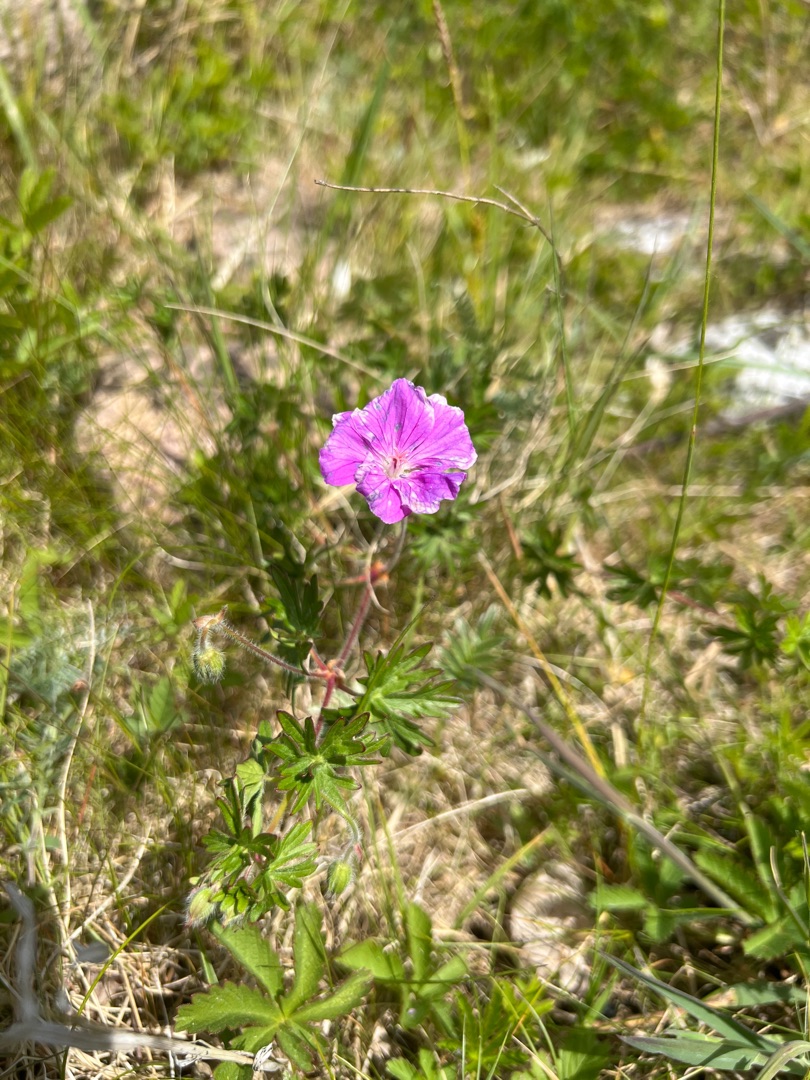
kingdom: Plantae
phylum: Tracheophyta
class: Magnoliopsida
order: Geraniales
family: Geraniaceae
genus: Geranium
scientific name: Geranium sanguineum
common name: Blodrød storkenæb
